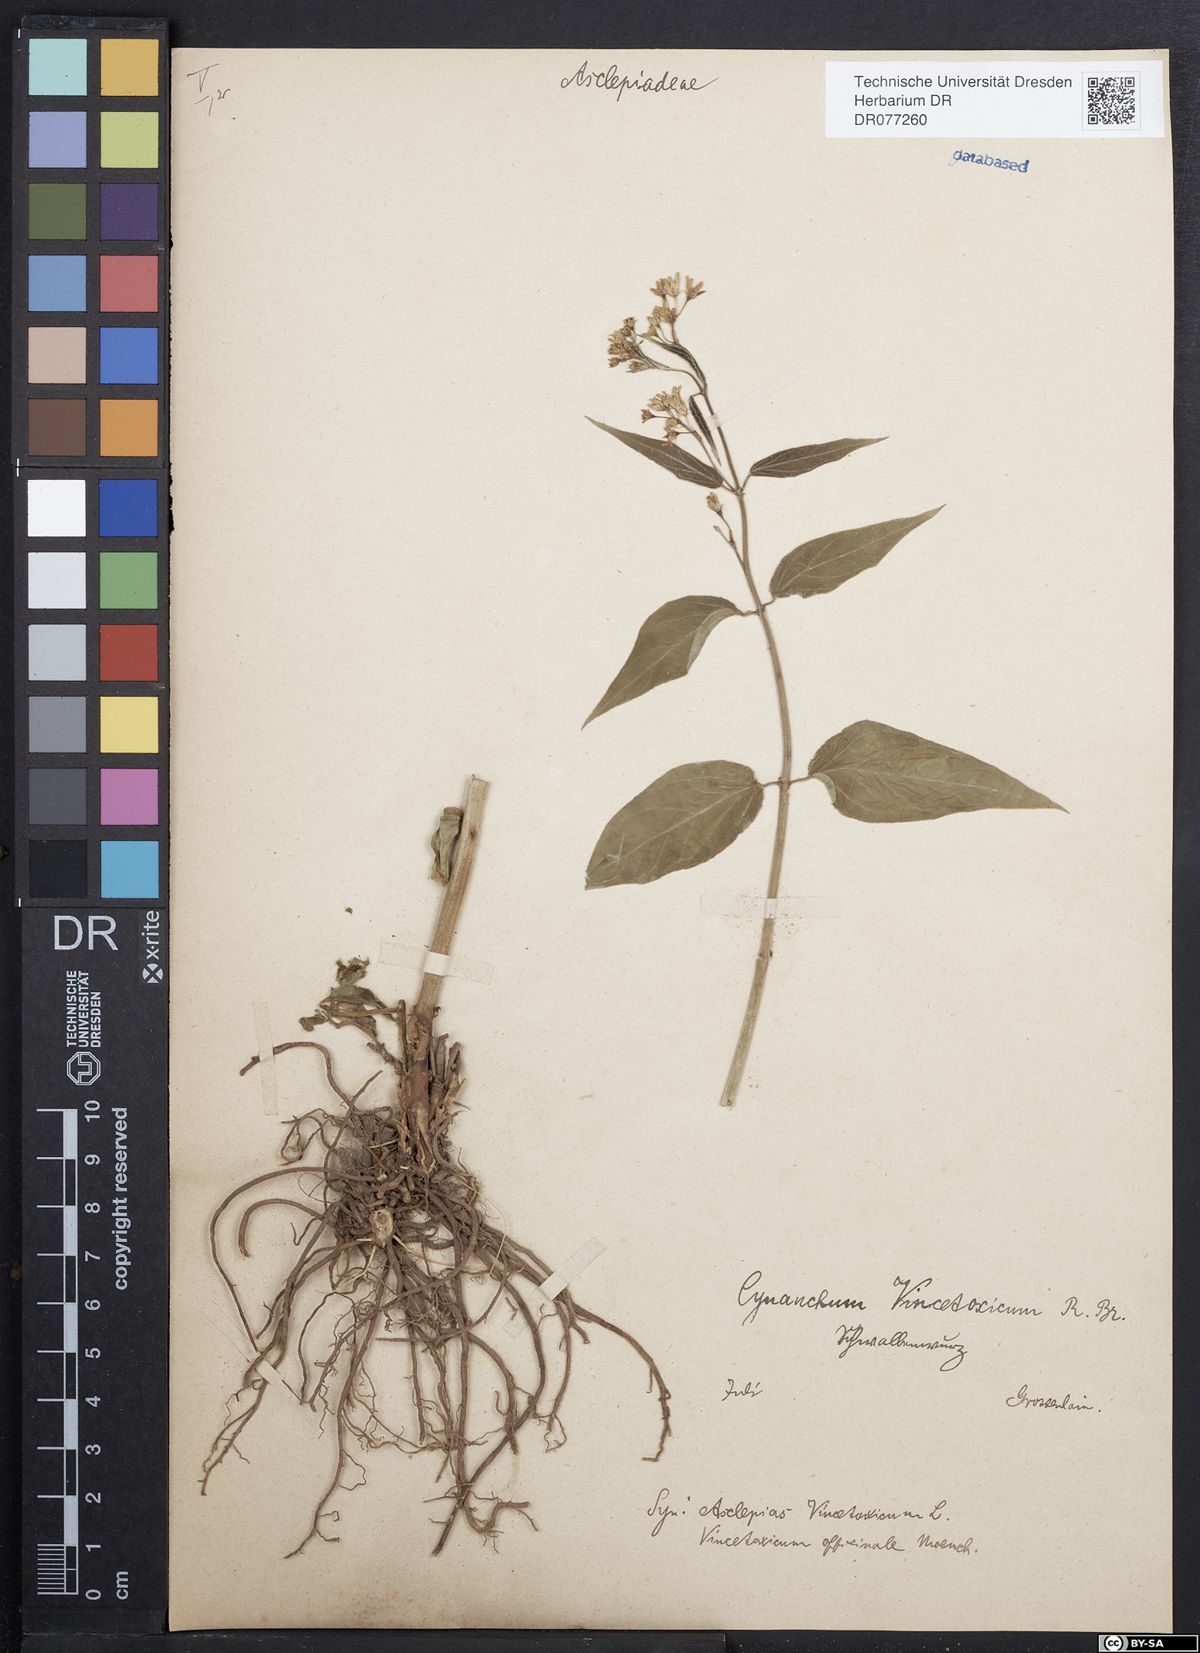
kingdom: Plantae
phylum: Tracheophyta
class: Magnoliopsida
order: Gentianales
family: Apocynaceae
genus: Vincetoxicum
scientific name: Vincetoxicum hirundinaria
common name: White swallowwort
